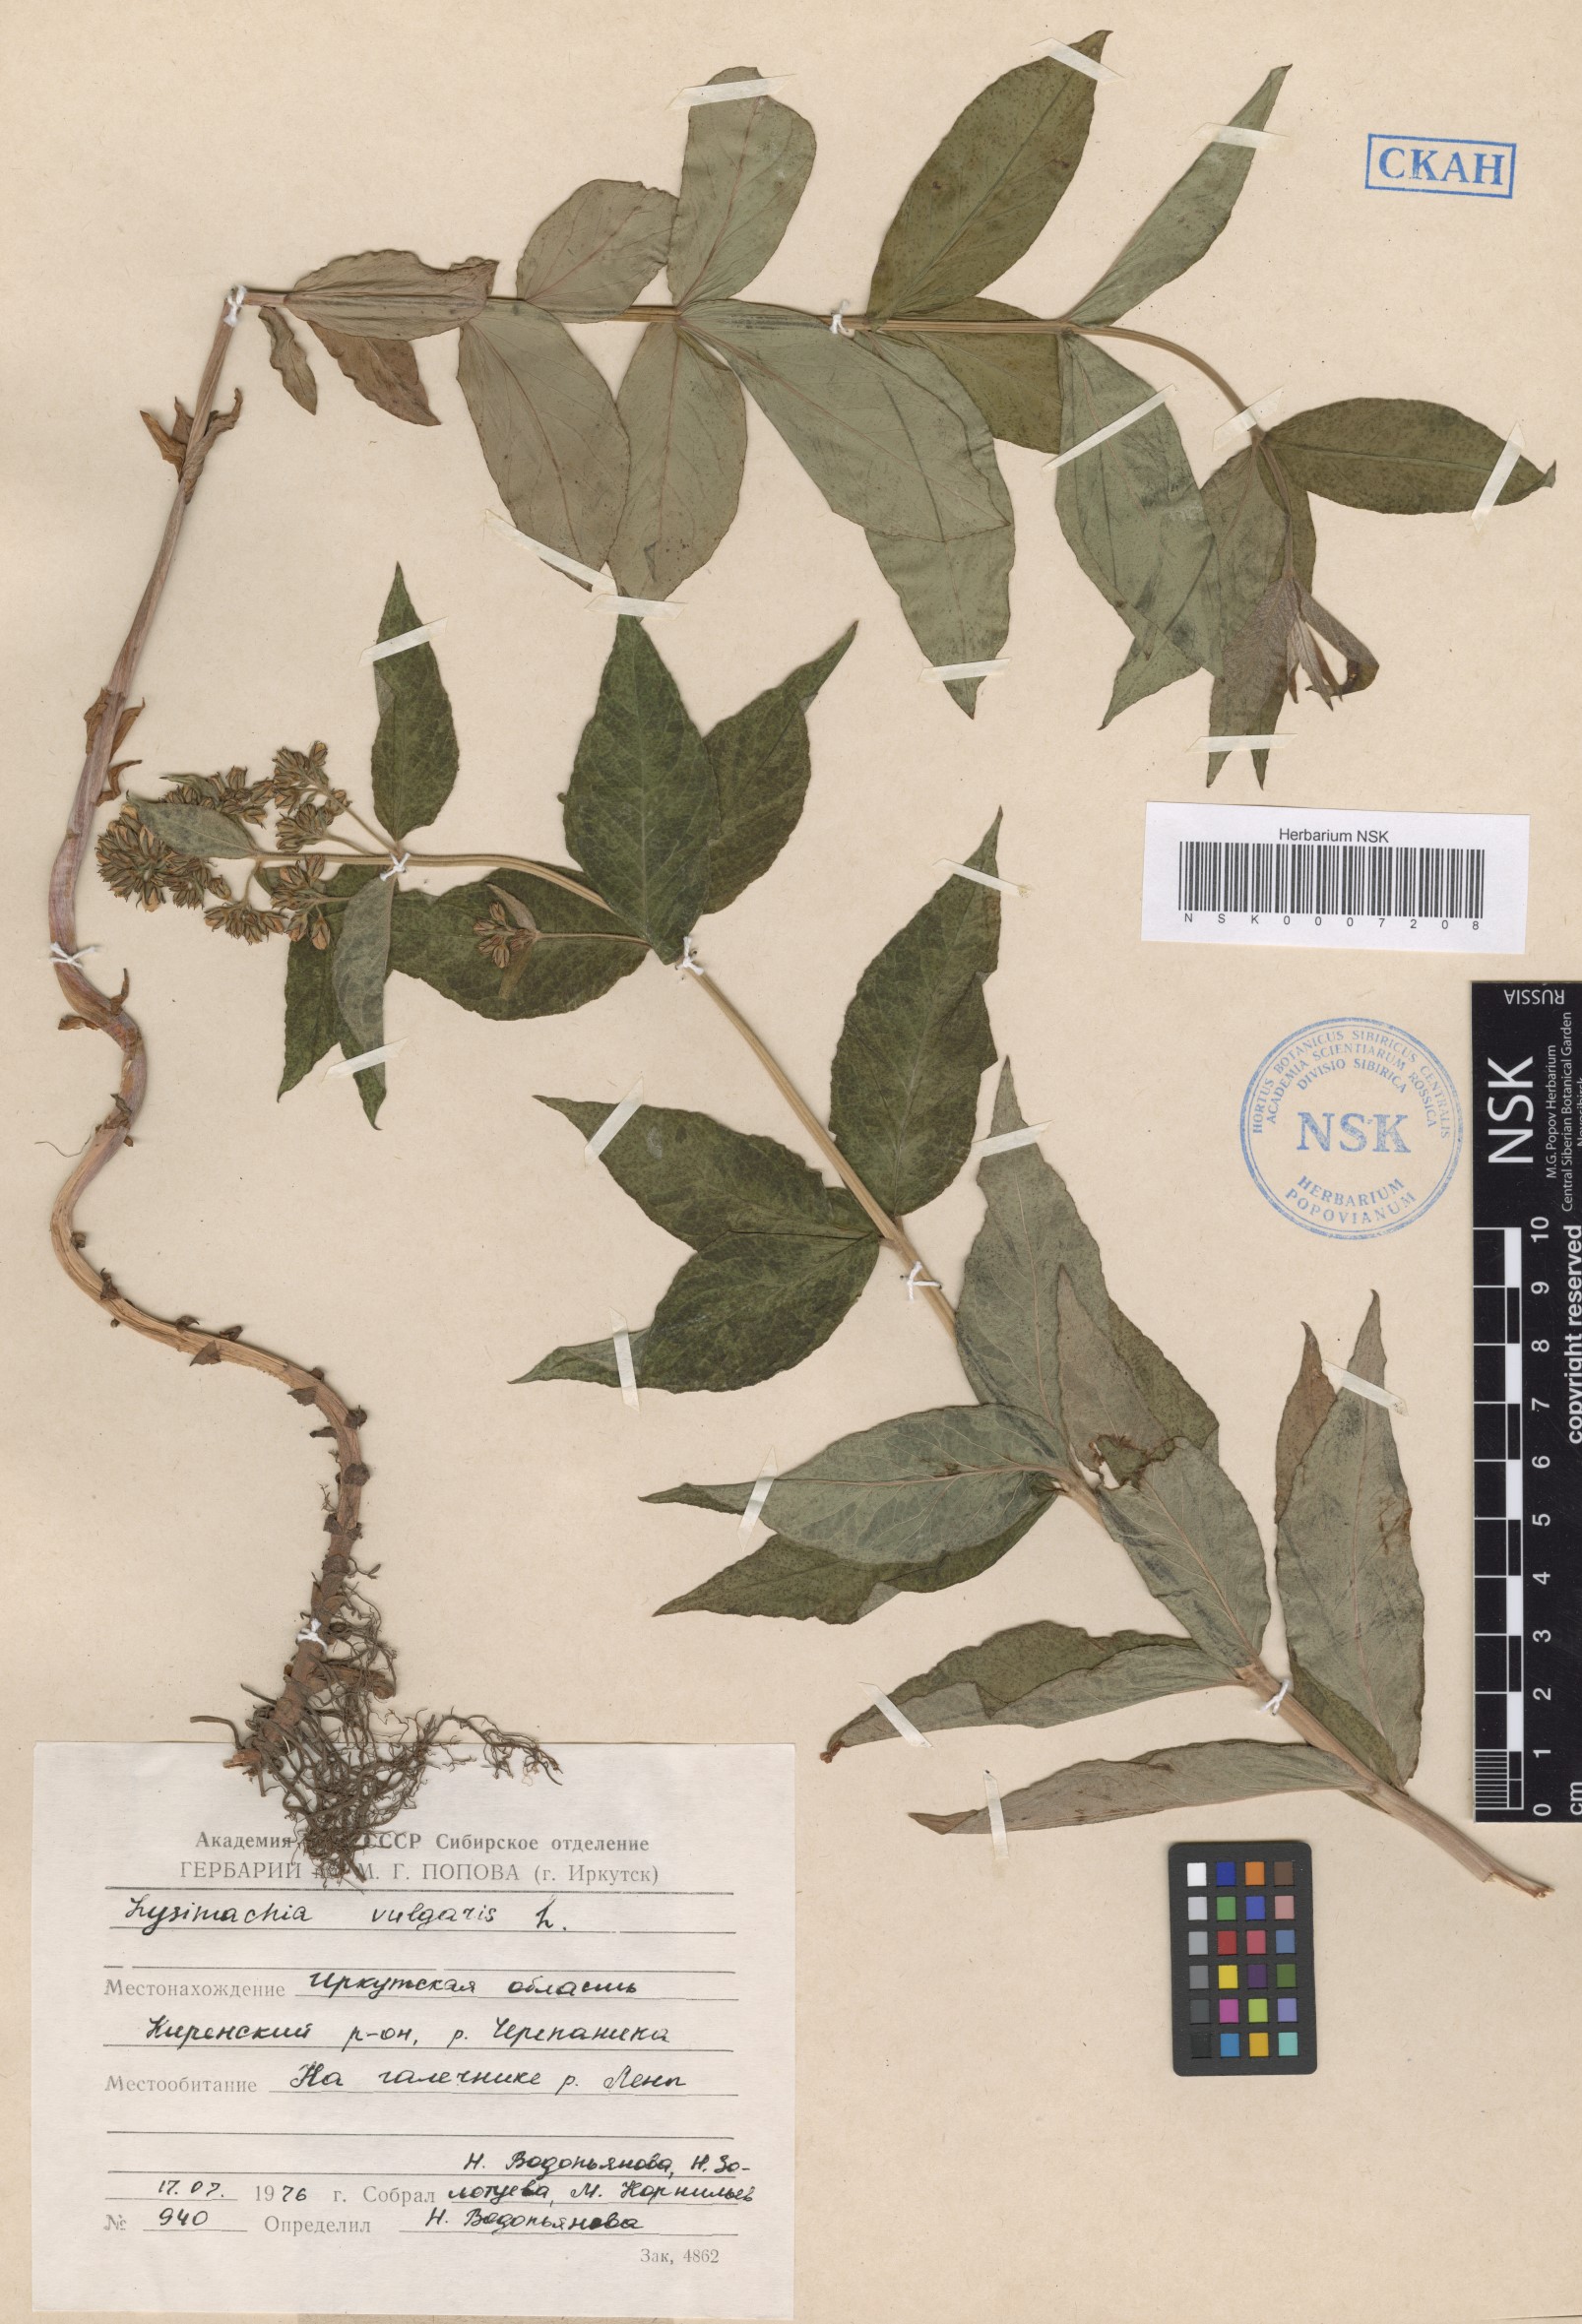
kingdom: Plantae
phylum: Tracheophyta
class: Magnoliopsida
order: Ericales
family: Primulaceae
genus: Lysimachia
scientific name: Lysimachia vulgaris
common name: Yellow loosestrife
